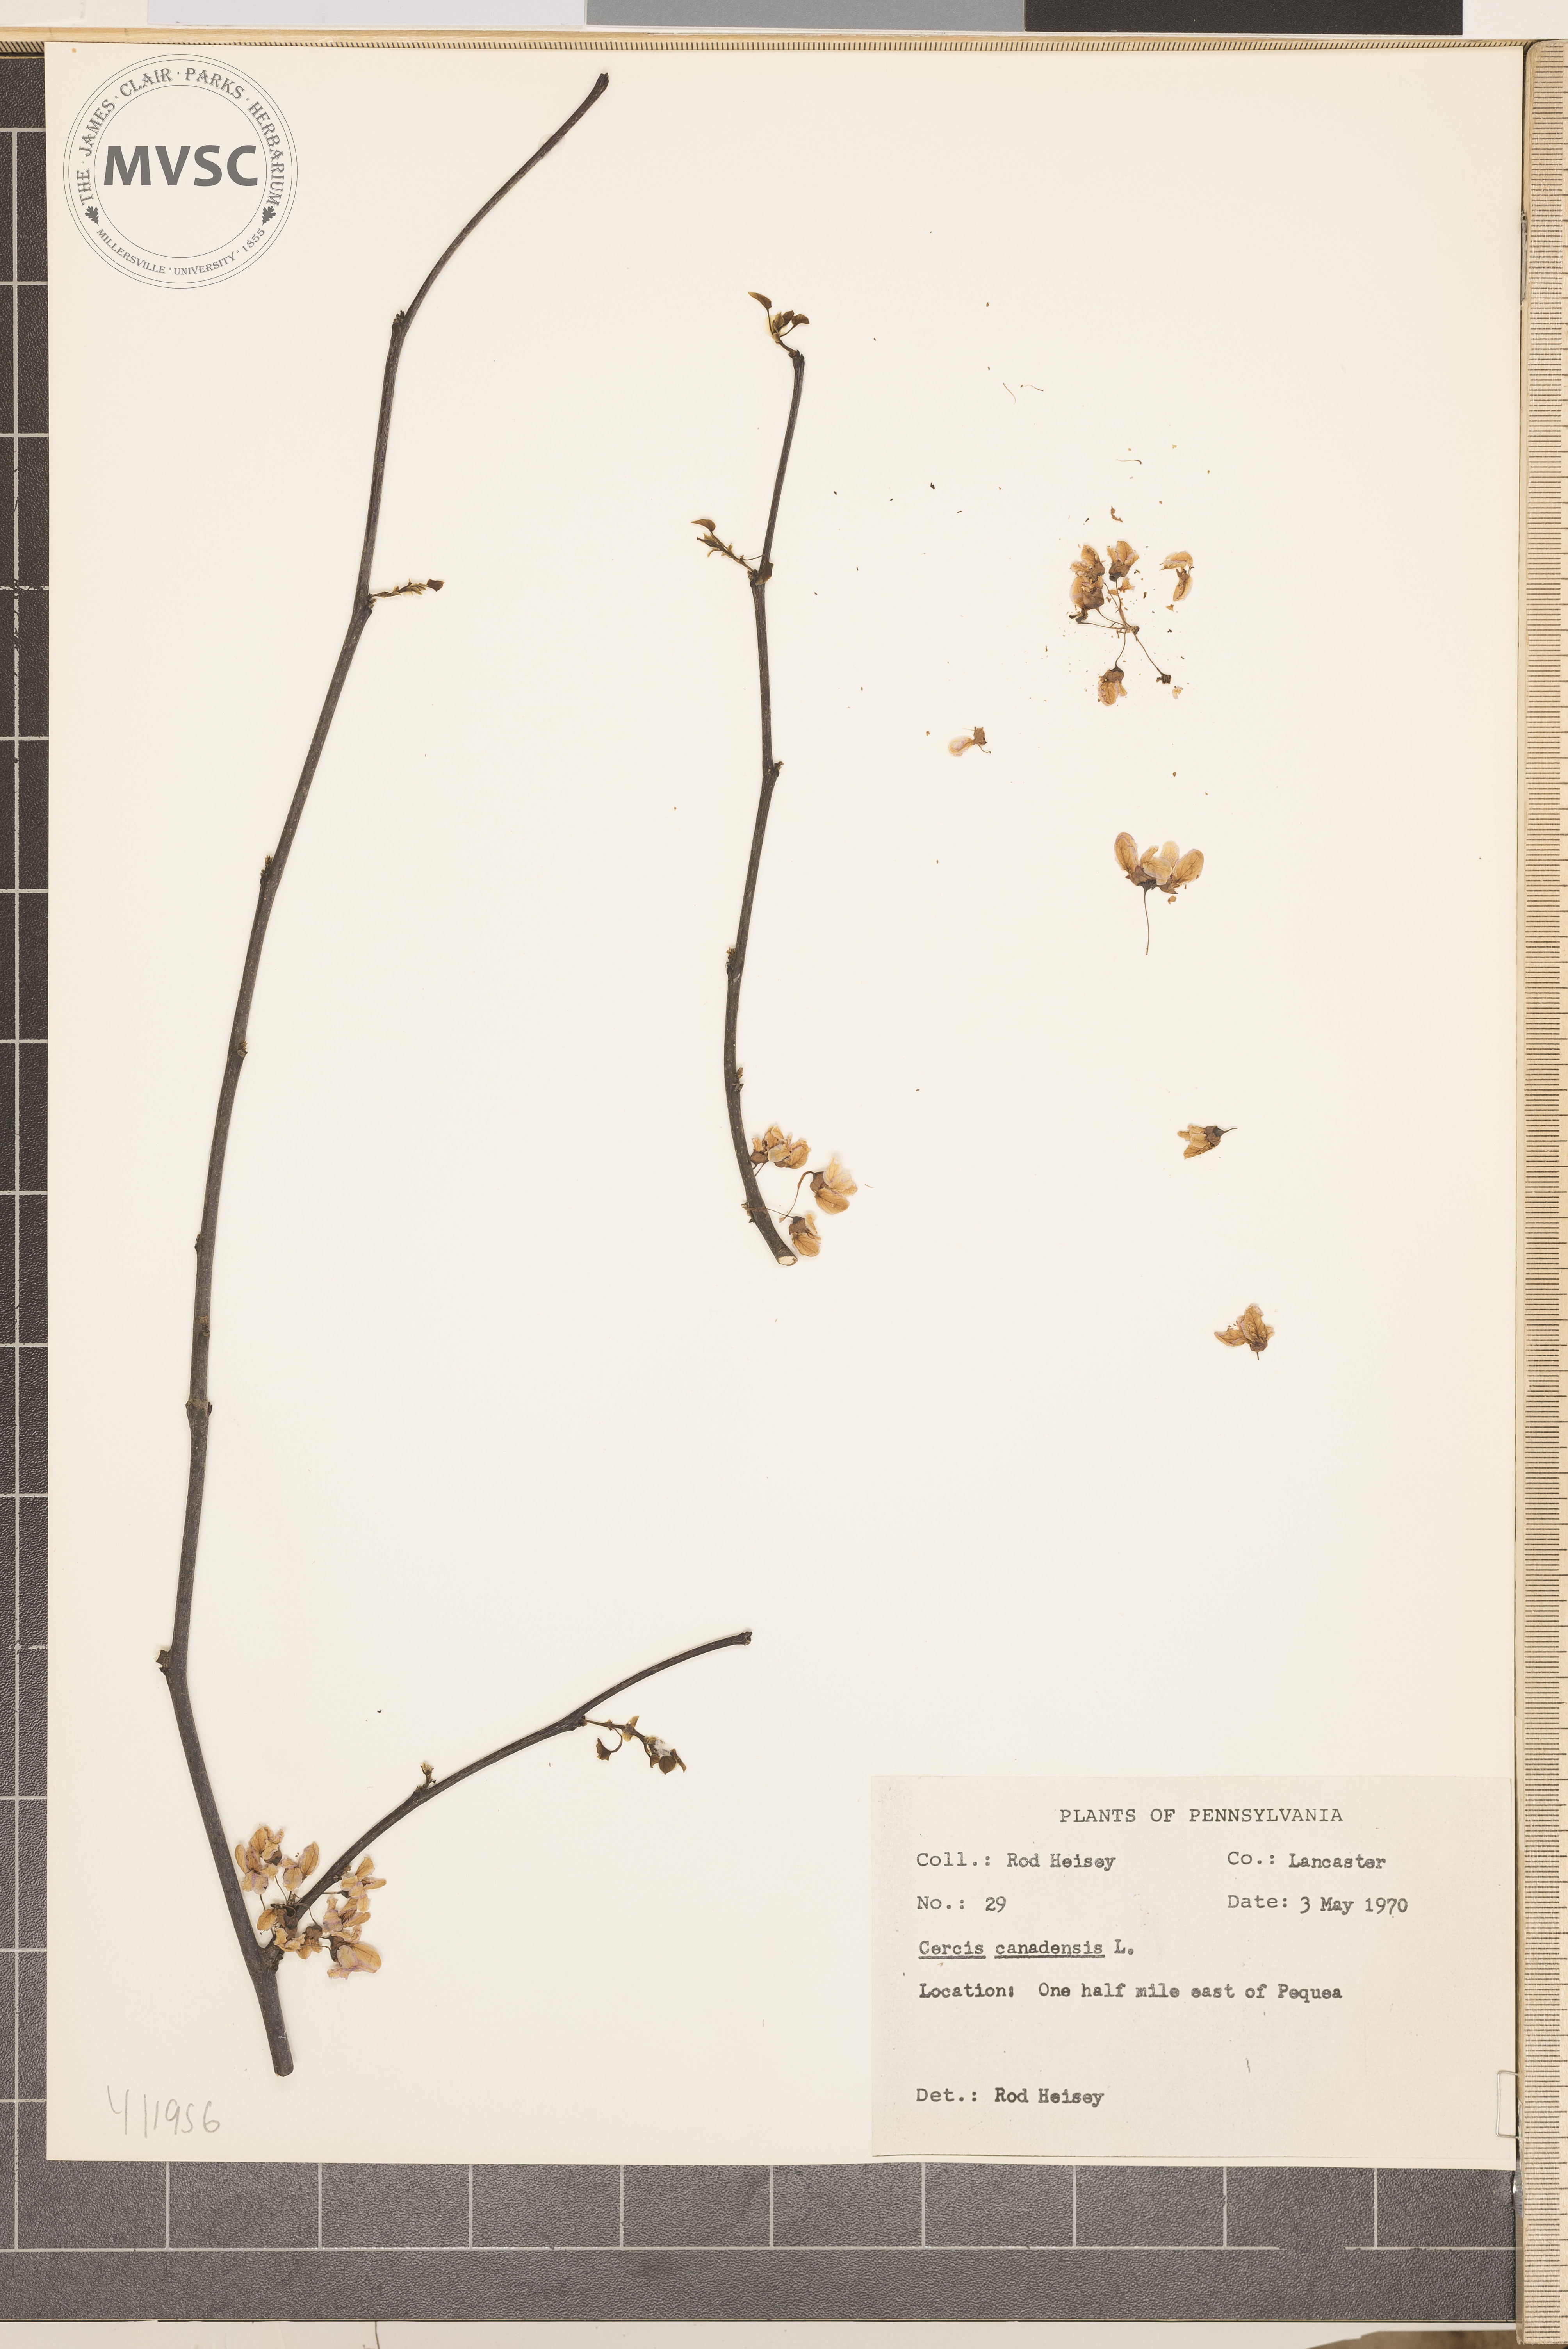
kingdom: Plantae
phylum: Tracheophyta
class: Magnoliopsida
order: Fabales
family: Fabaceae
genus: Cercis
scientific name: Cercis canadensis
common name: Eastern redbud
